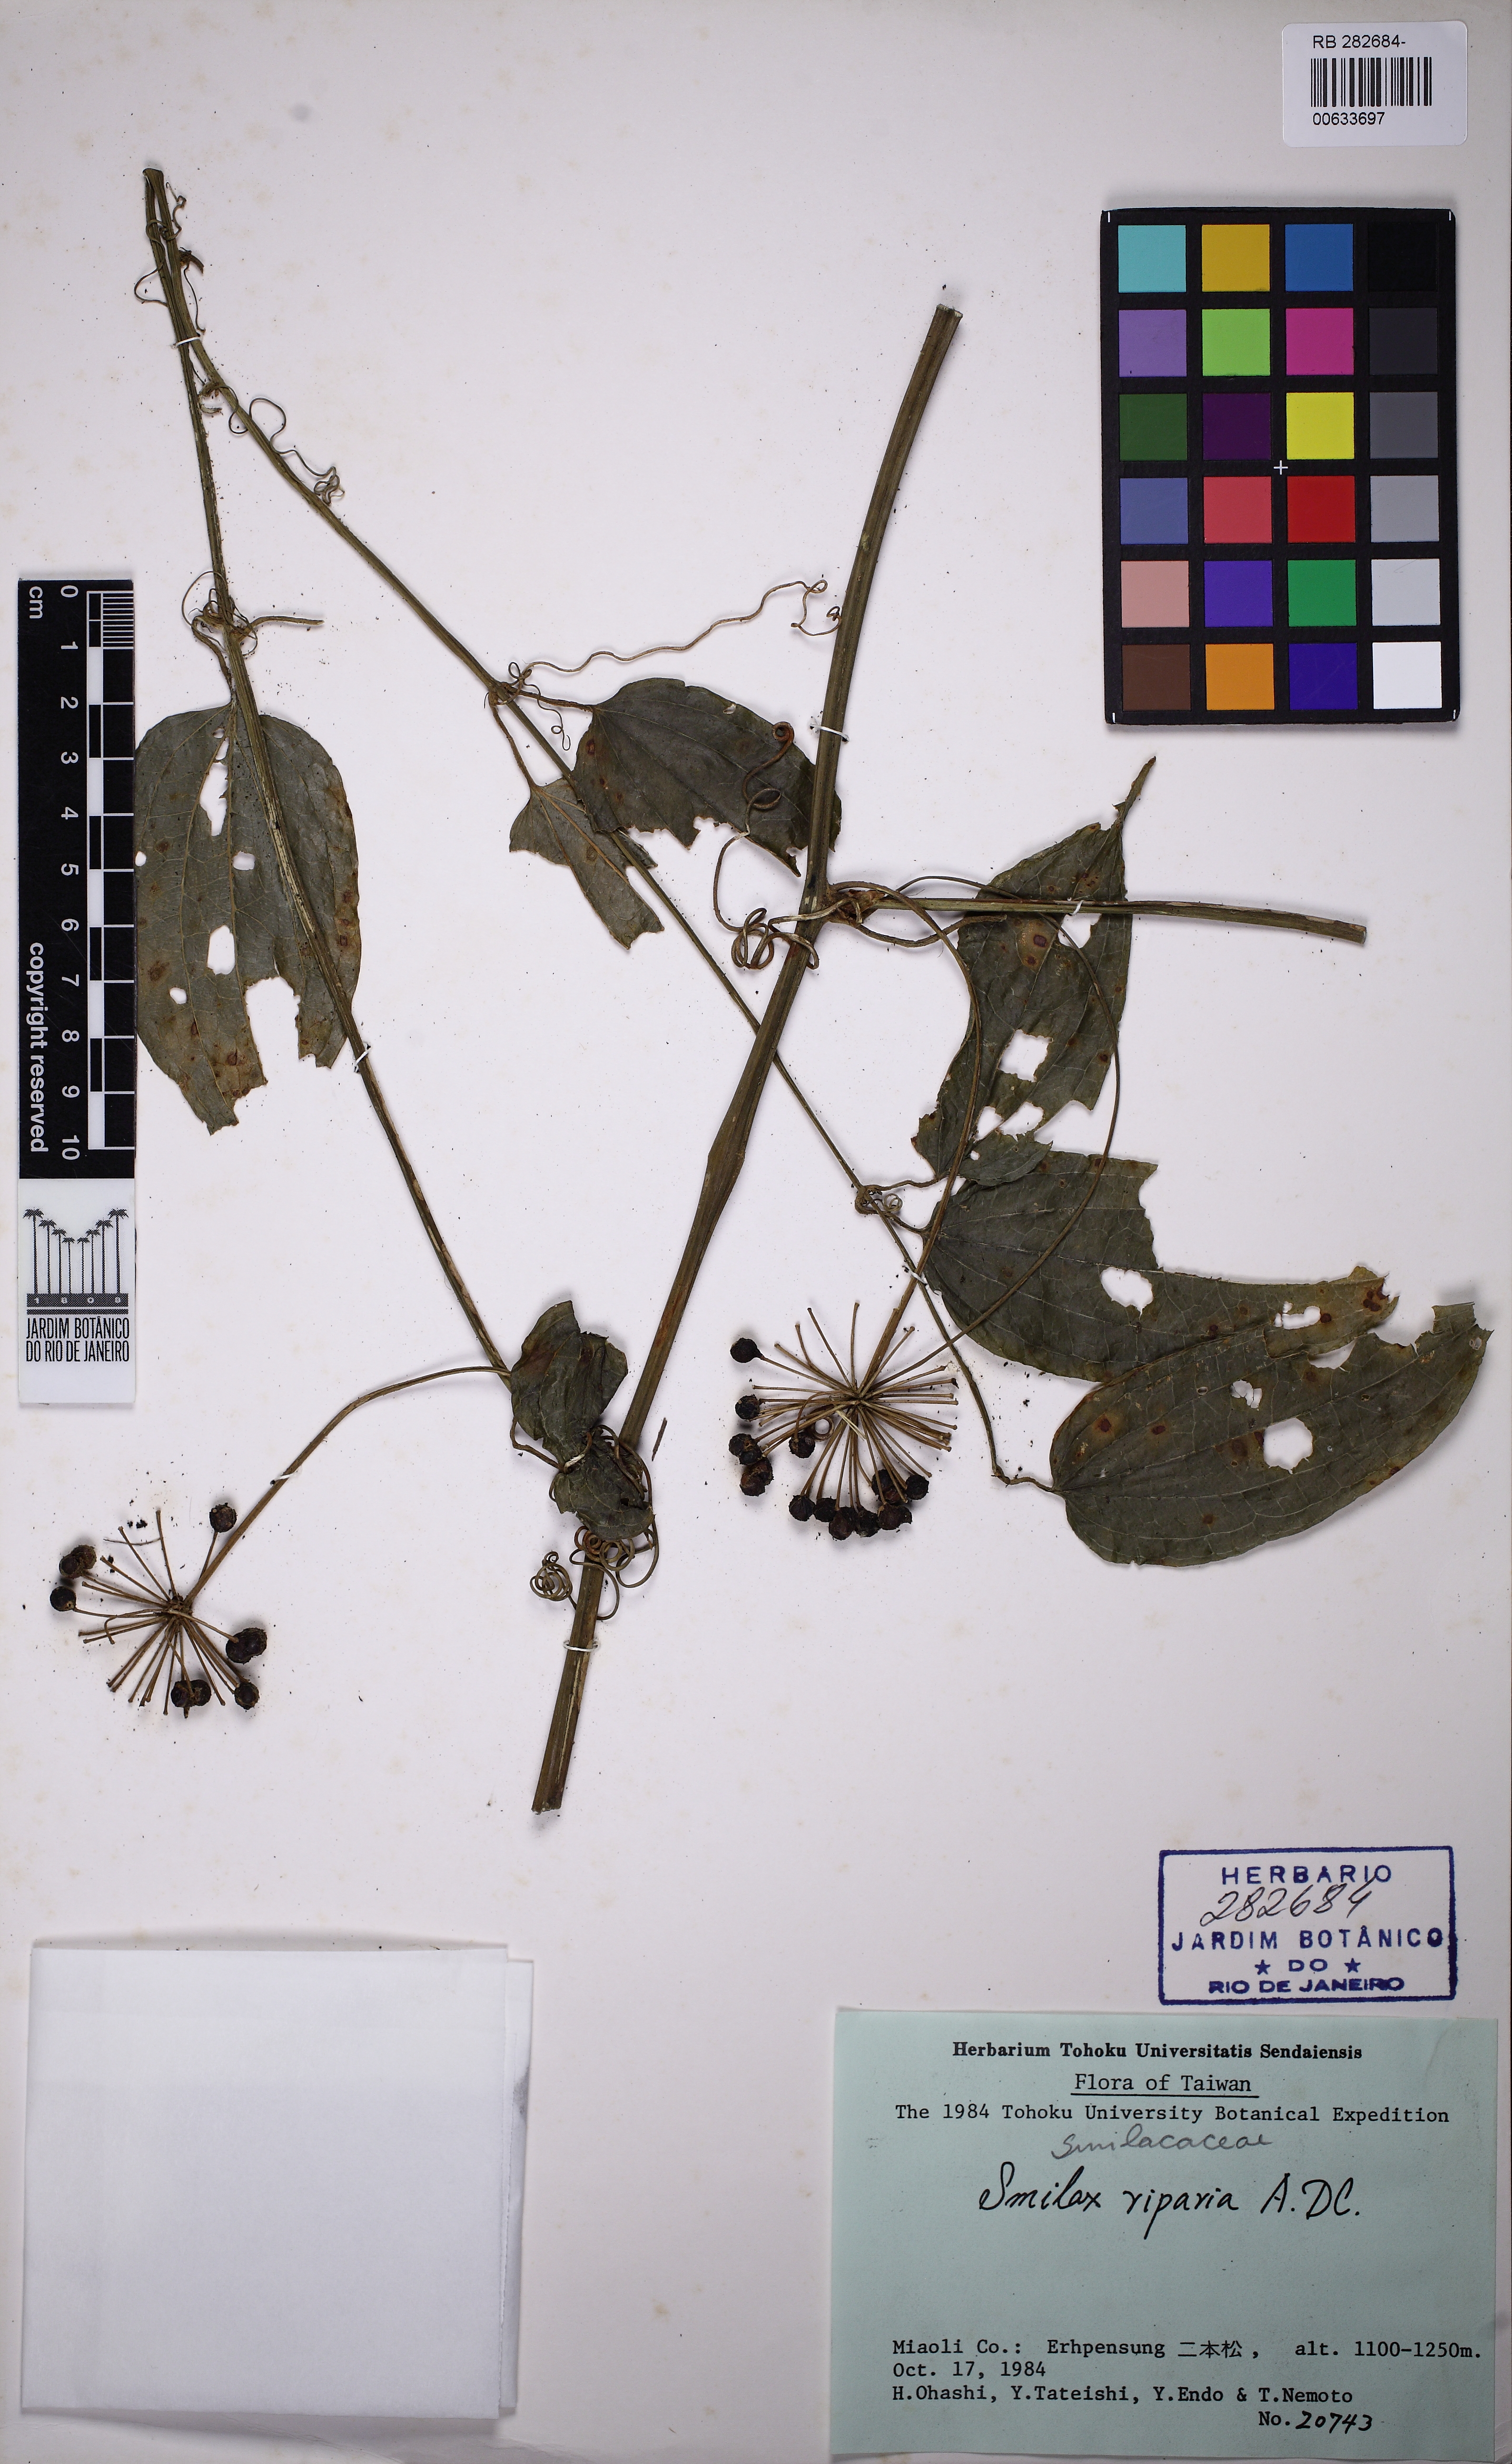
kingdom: Plantae
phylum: Tracheophyta
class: Liliopsida
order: Liliales
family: Smilacaceae
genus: Smilax
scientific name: Smilax riparia
